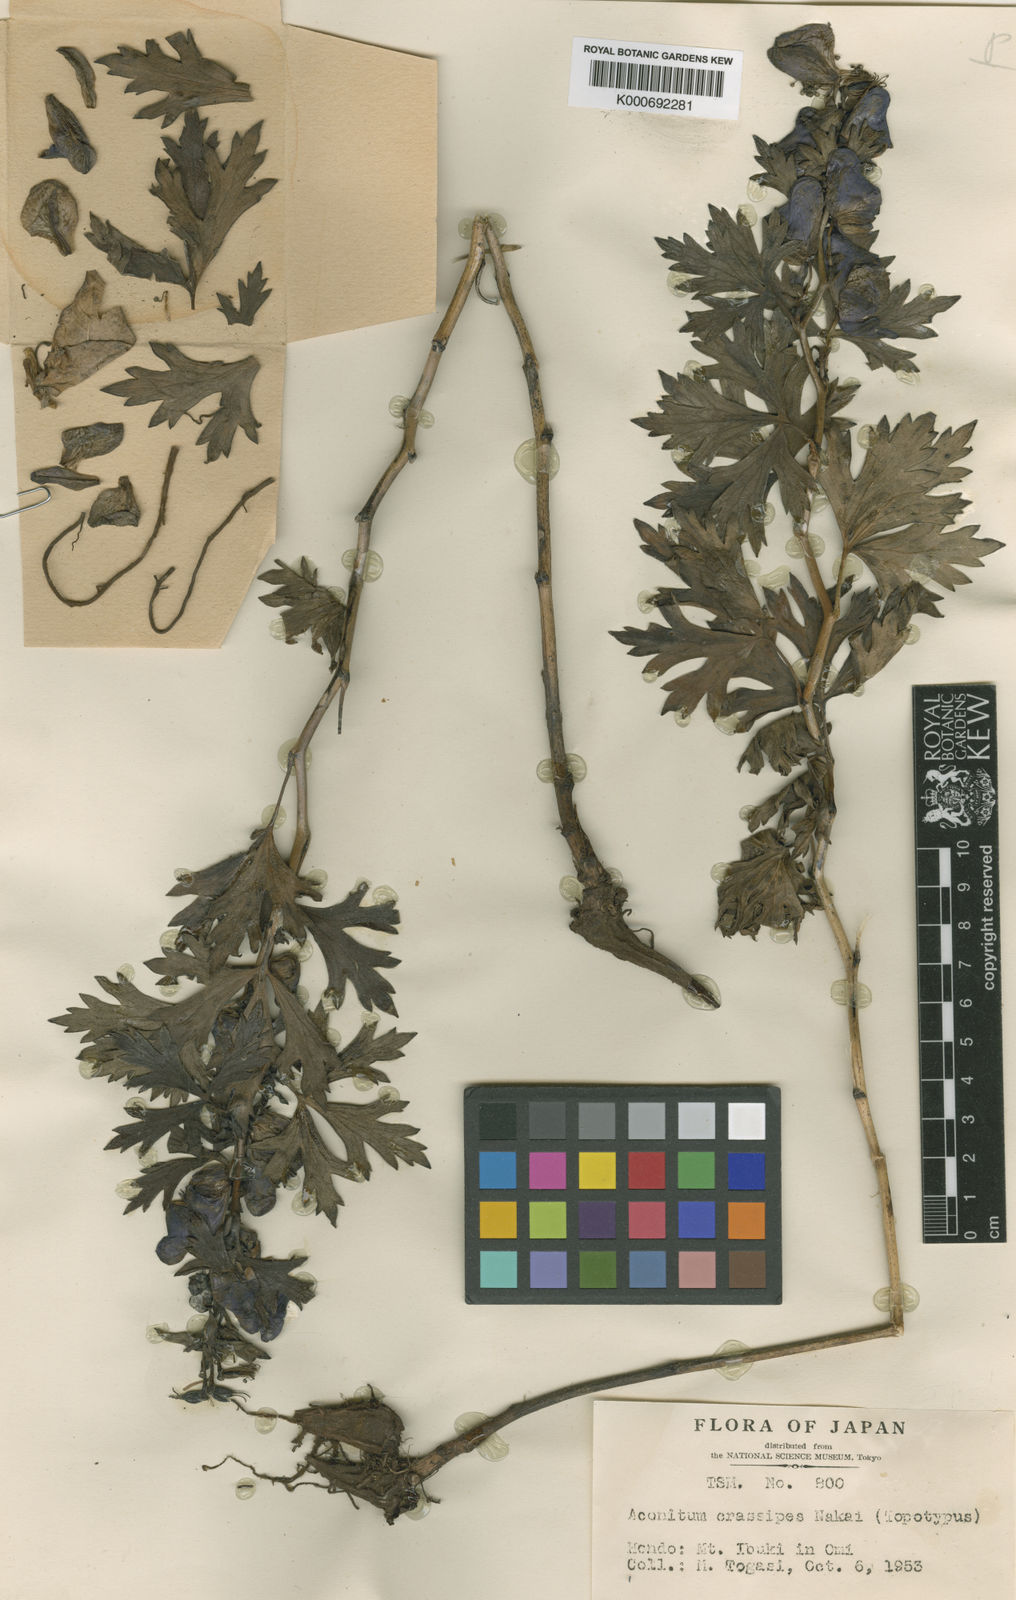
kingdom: Plantae
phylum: Tracheophyta
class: Magnoliopsida
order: Ranunculales
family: Ranunculaceae
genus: Aconitum
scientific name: Aconitum zigzag
